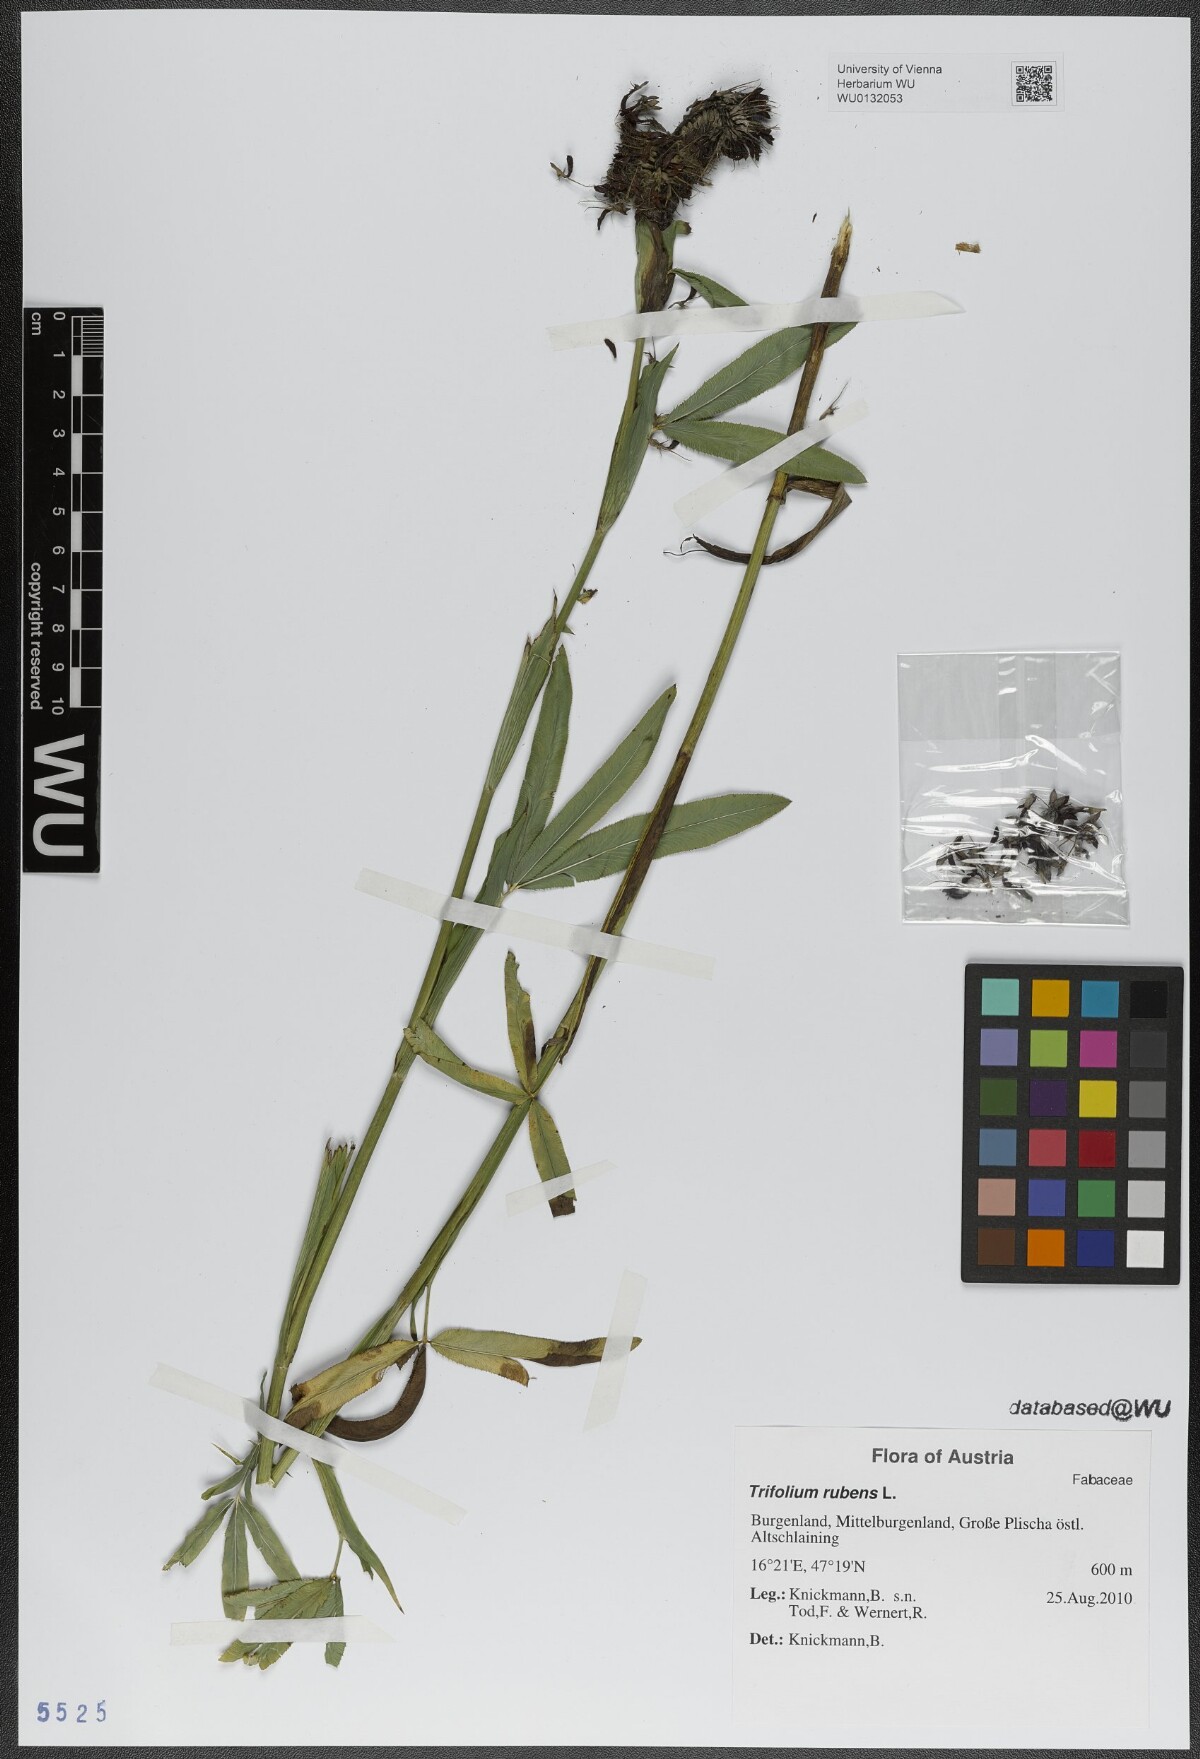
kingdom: Plantae
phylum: Tracheophyta
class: Magnoliopsida
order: Fabales
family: Fabaceae
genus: Trifolium
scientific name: Trifolium rubens
